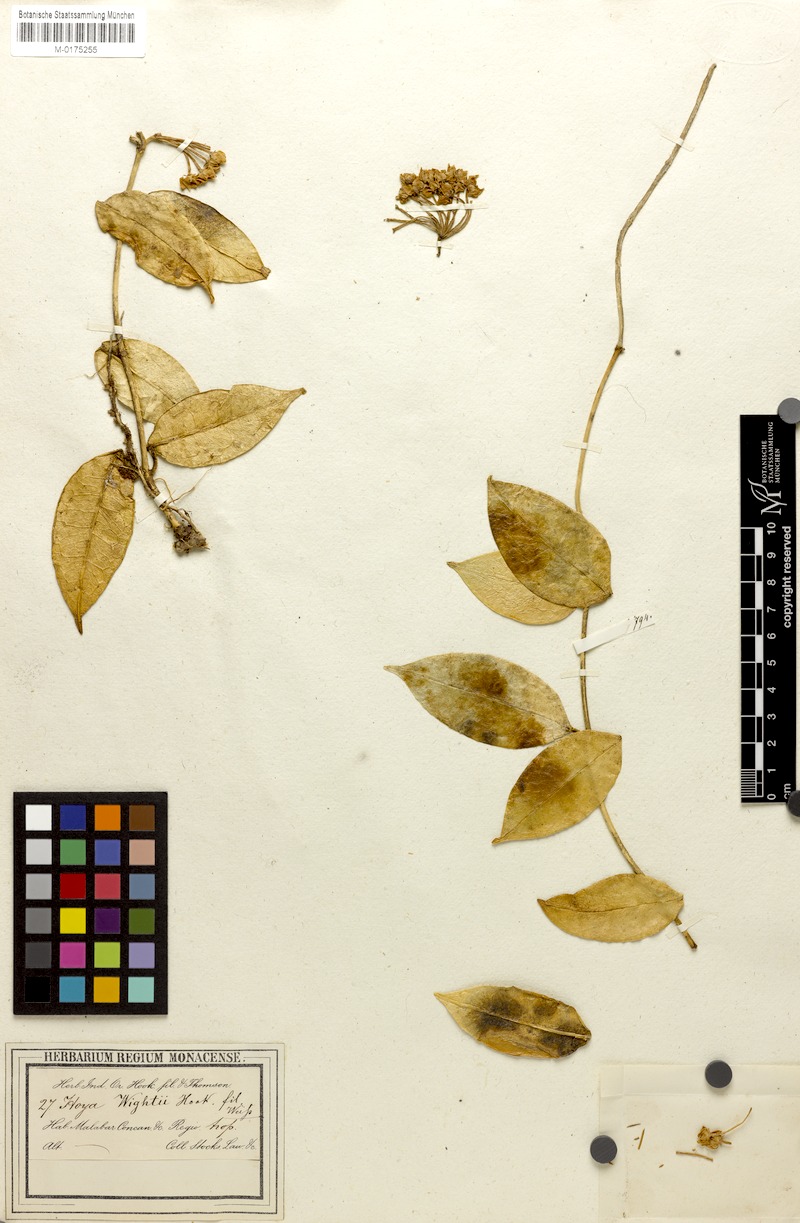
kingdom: Plantae
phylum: Tracheophyta
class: Magnoliopsida
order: Gentianales
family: Apocynaceae
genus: Hoya
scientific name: Hoya wightii
